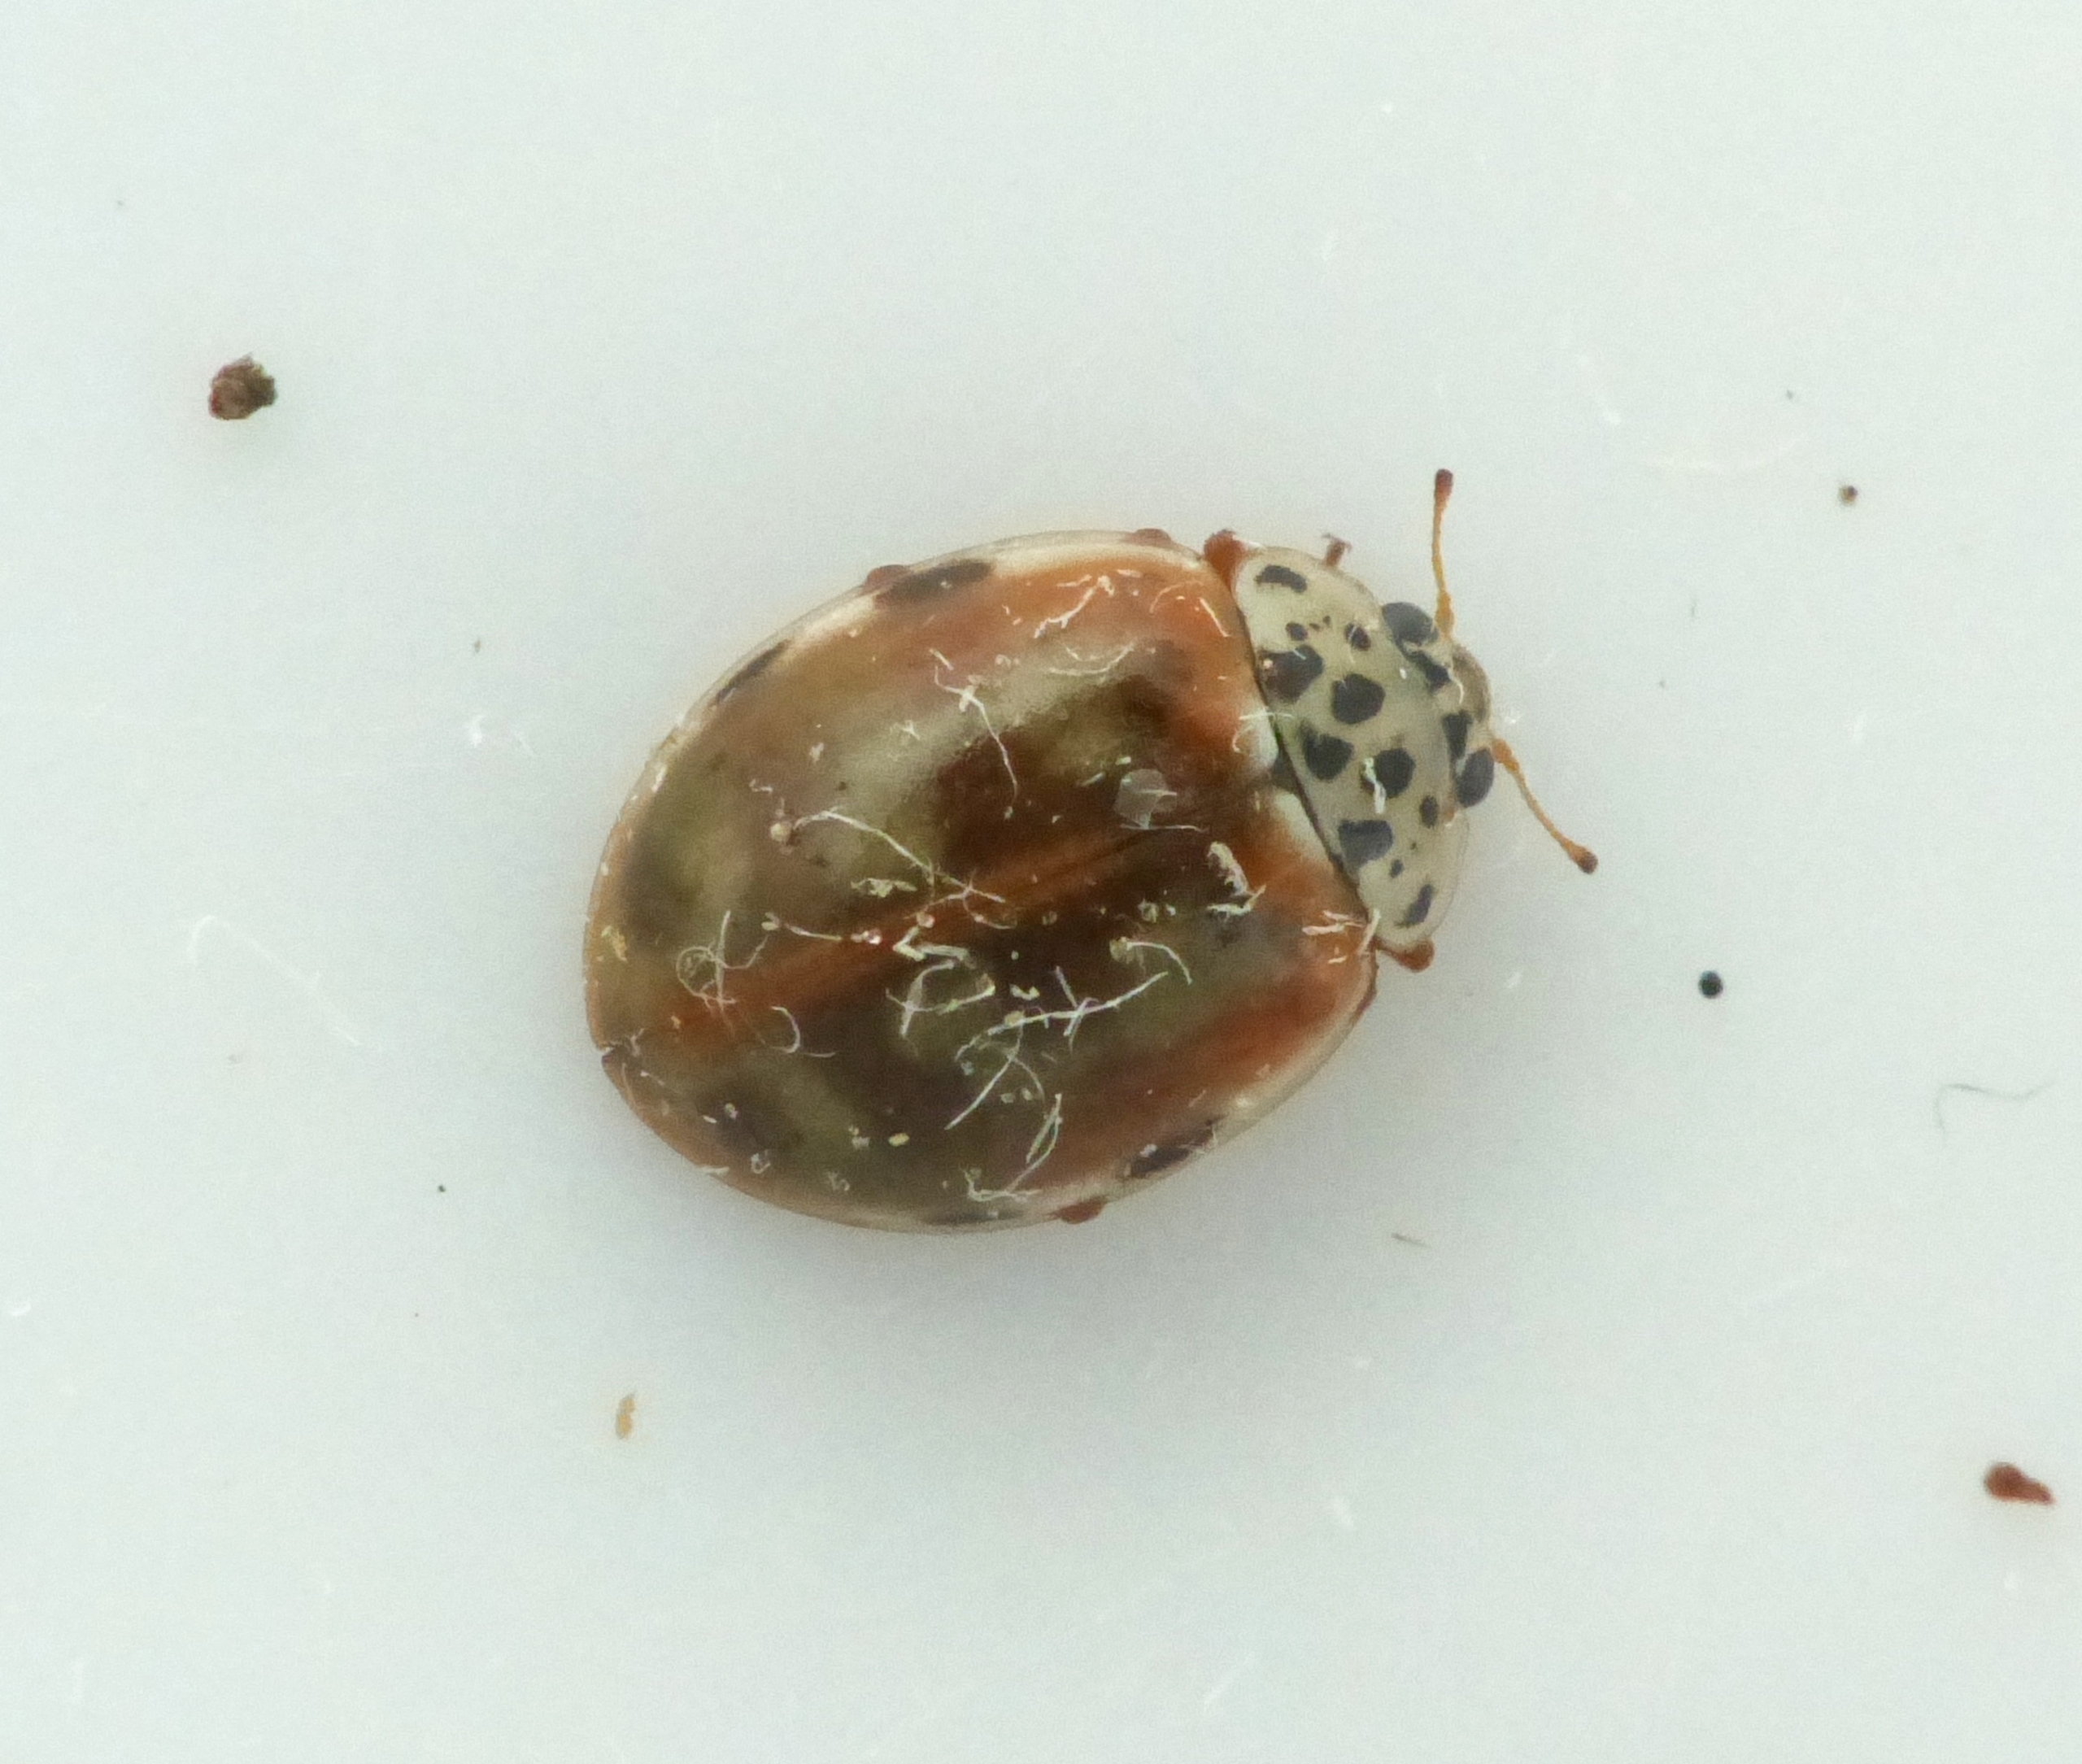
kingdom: Animalia
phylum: Arthropoda
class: Insecta
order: Coleoptera
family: Coccinellidae
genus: Harmonia
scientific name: Harmonia quadripunctata
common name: Gulrød mariehøne
